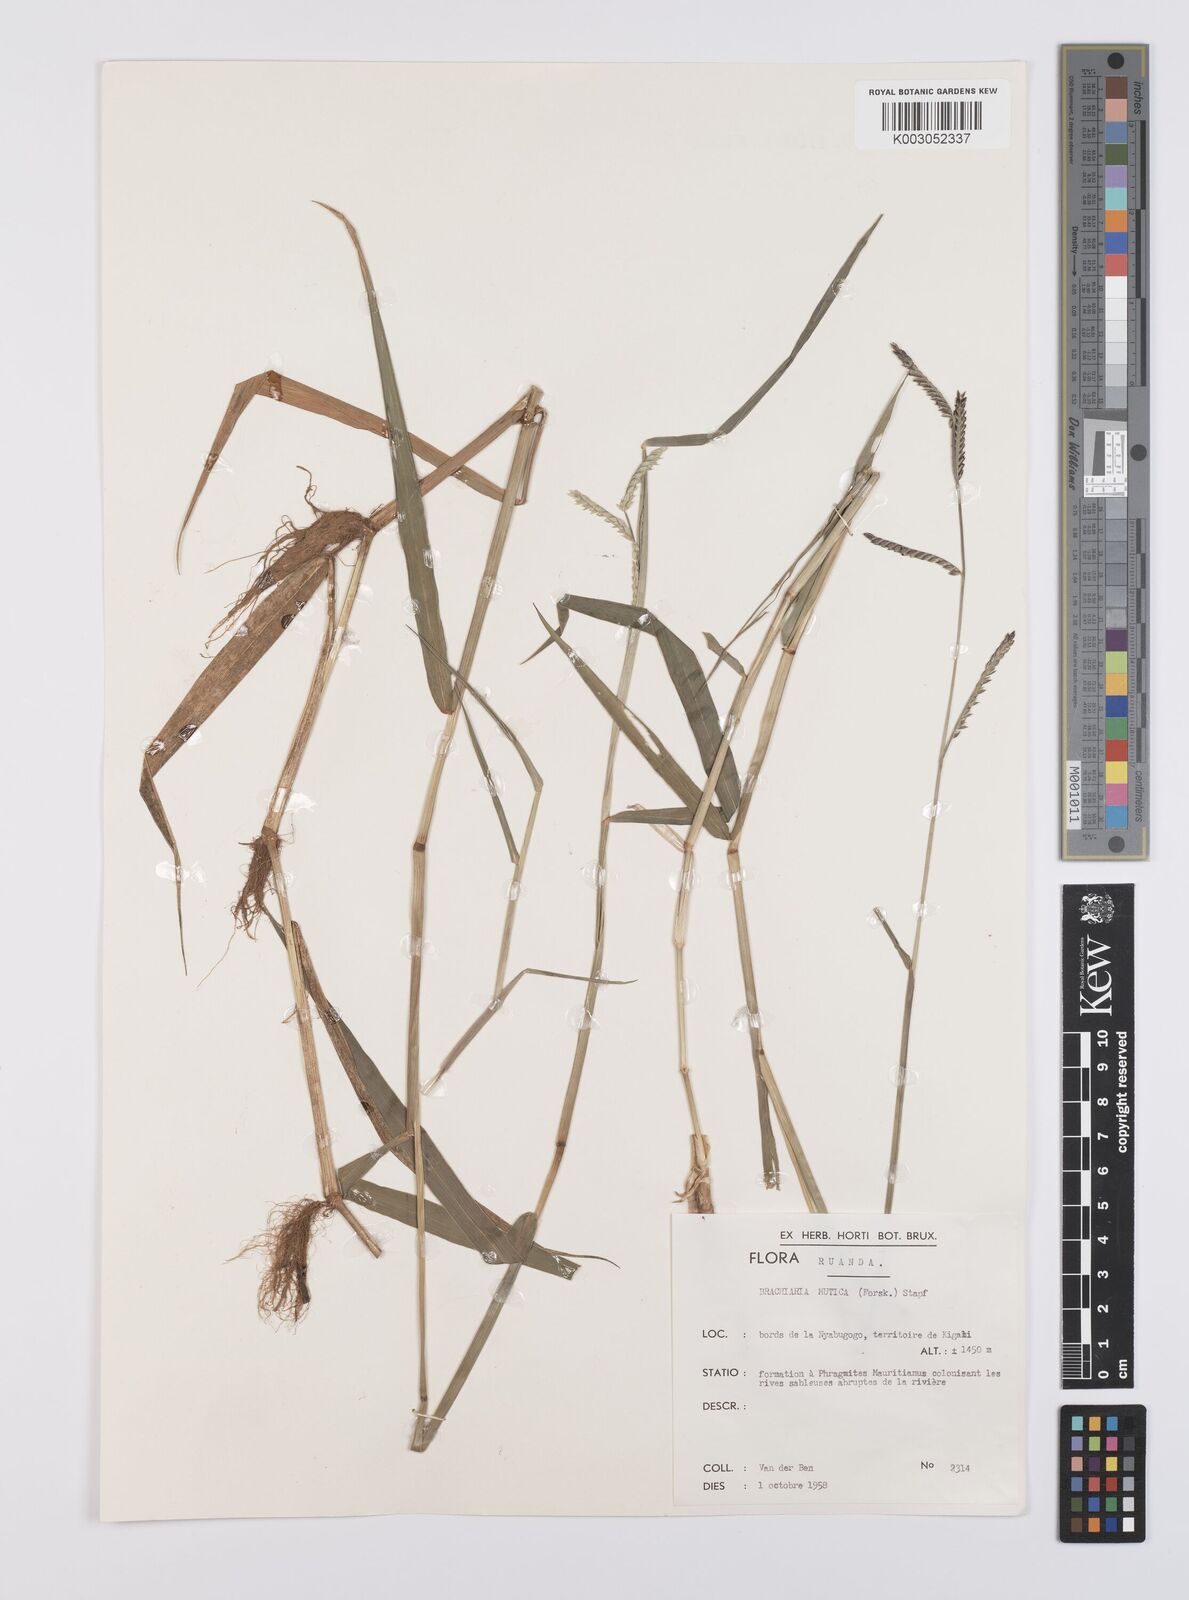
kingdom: Plantae
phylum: Tracheophyta
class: Liliopsida
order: Poales
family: Poaceae
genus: Urochloa
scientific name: Urochloa arrecta
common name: African signalgrass
